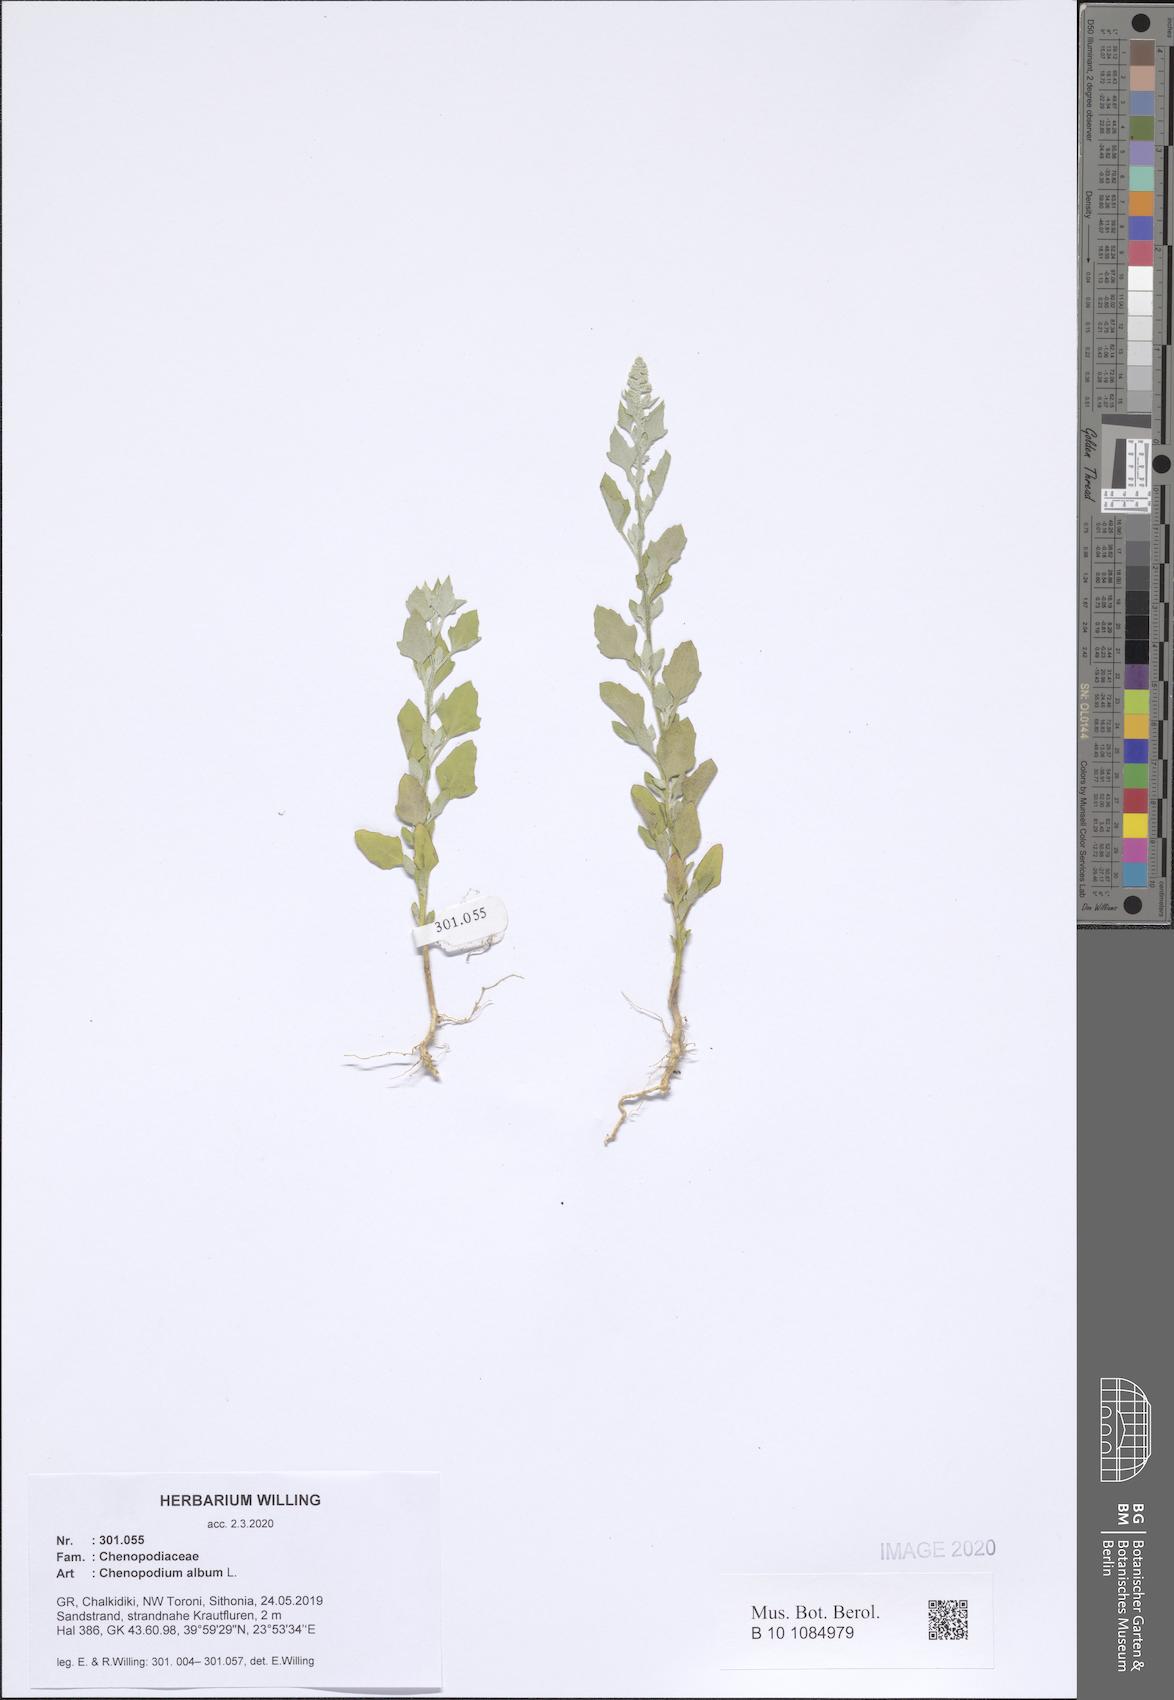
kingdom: Plantae
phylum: Tracheophyta
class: Magnoliopsida
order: Caryophyllales
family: Amaranthaceae
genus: Chenopodium
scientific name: Chenopodium album
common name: Fat-hen
